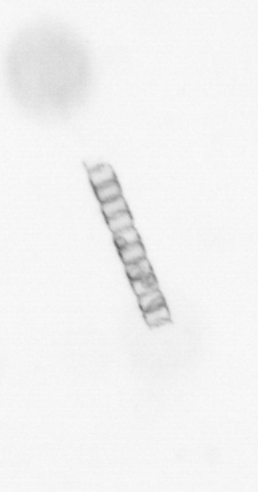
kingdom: Chromista
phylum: Ochrophyta
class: Bacillariophyceae
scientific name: Bacillariophyceae
